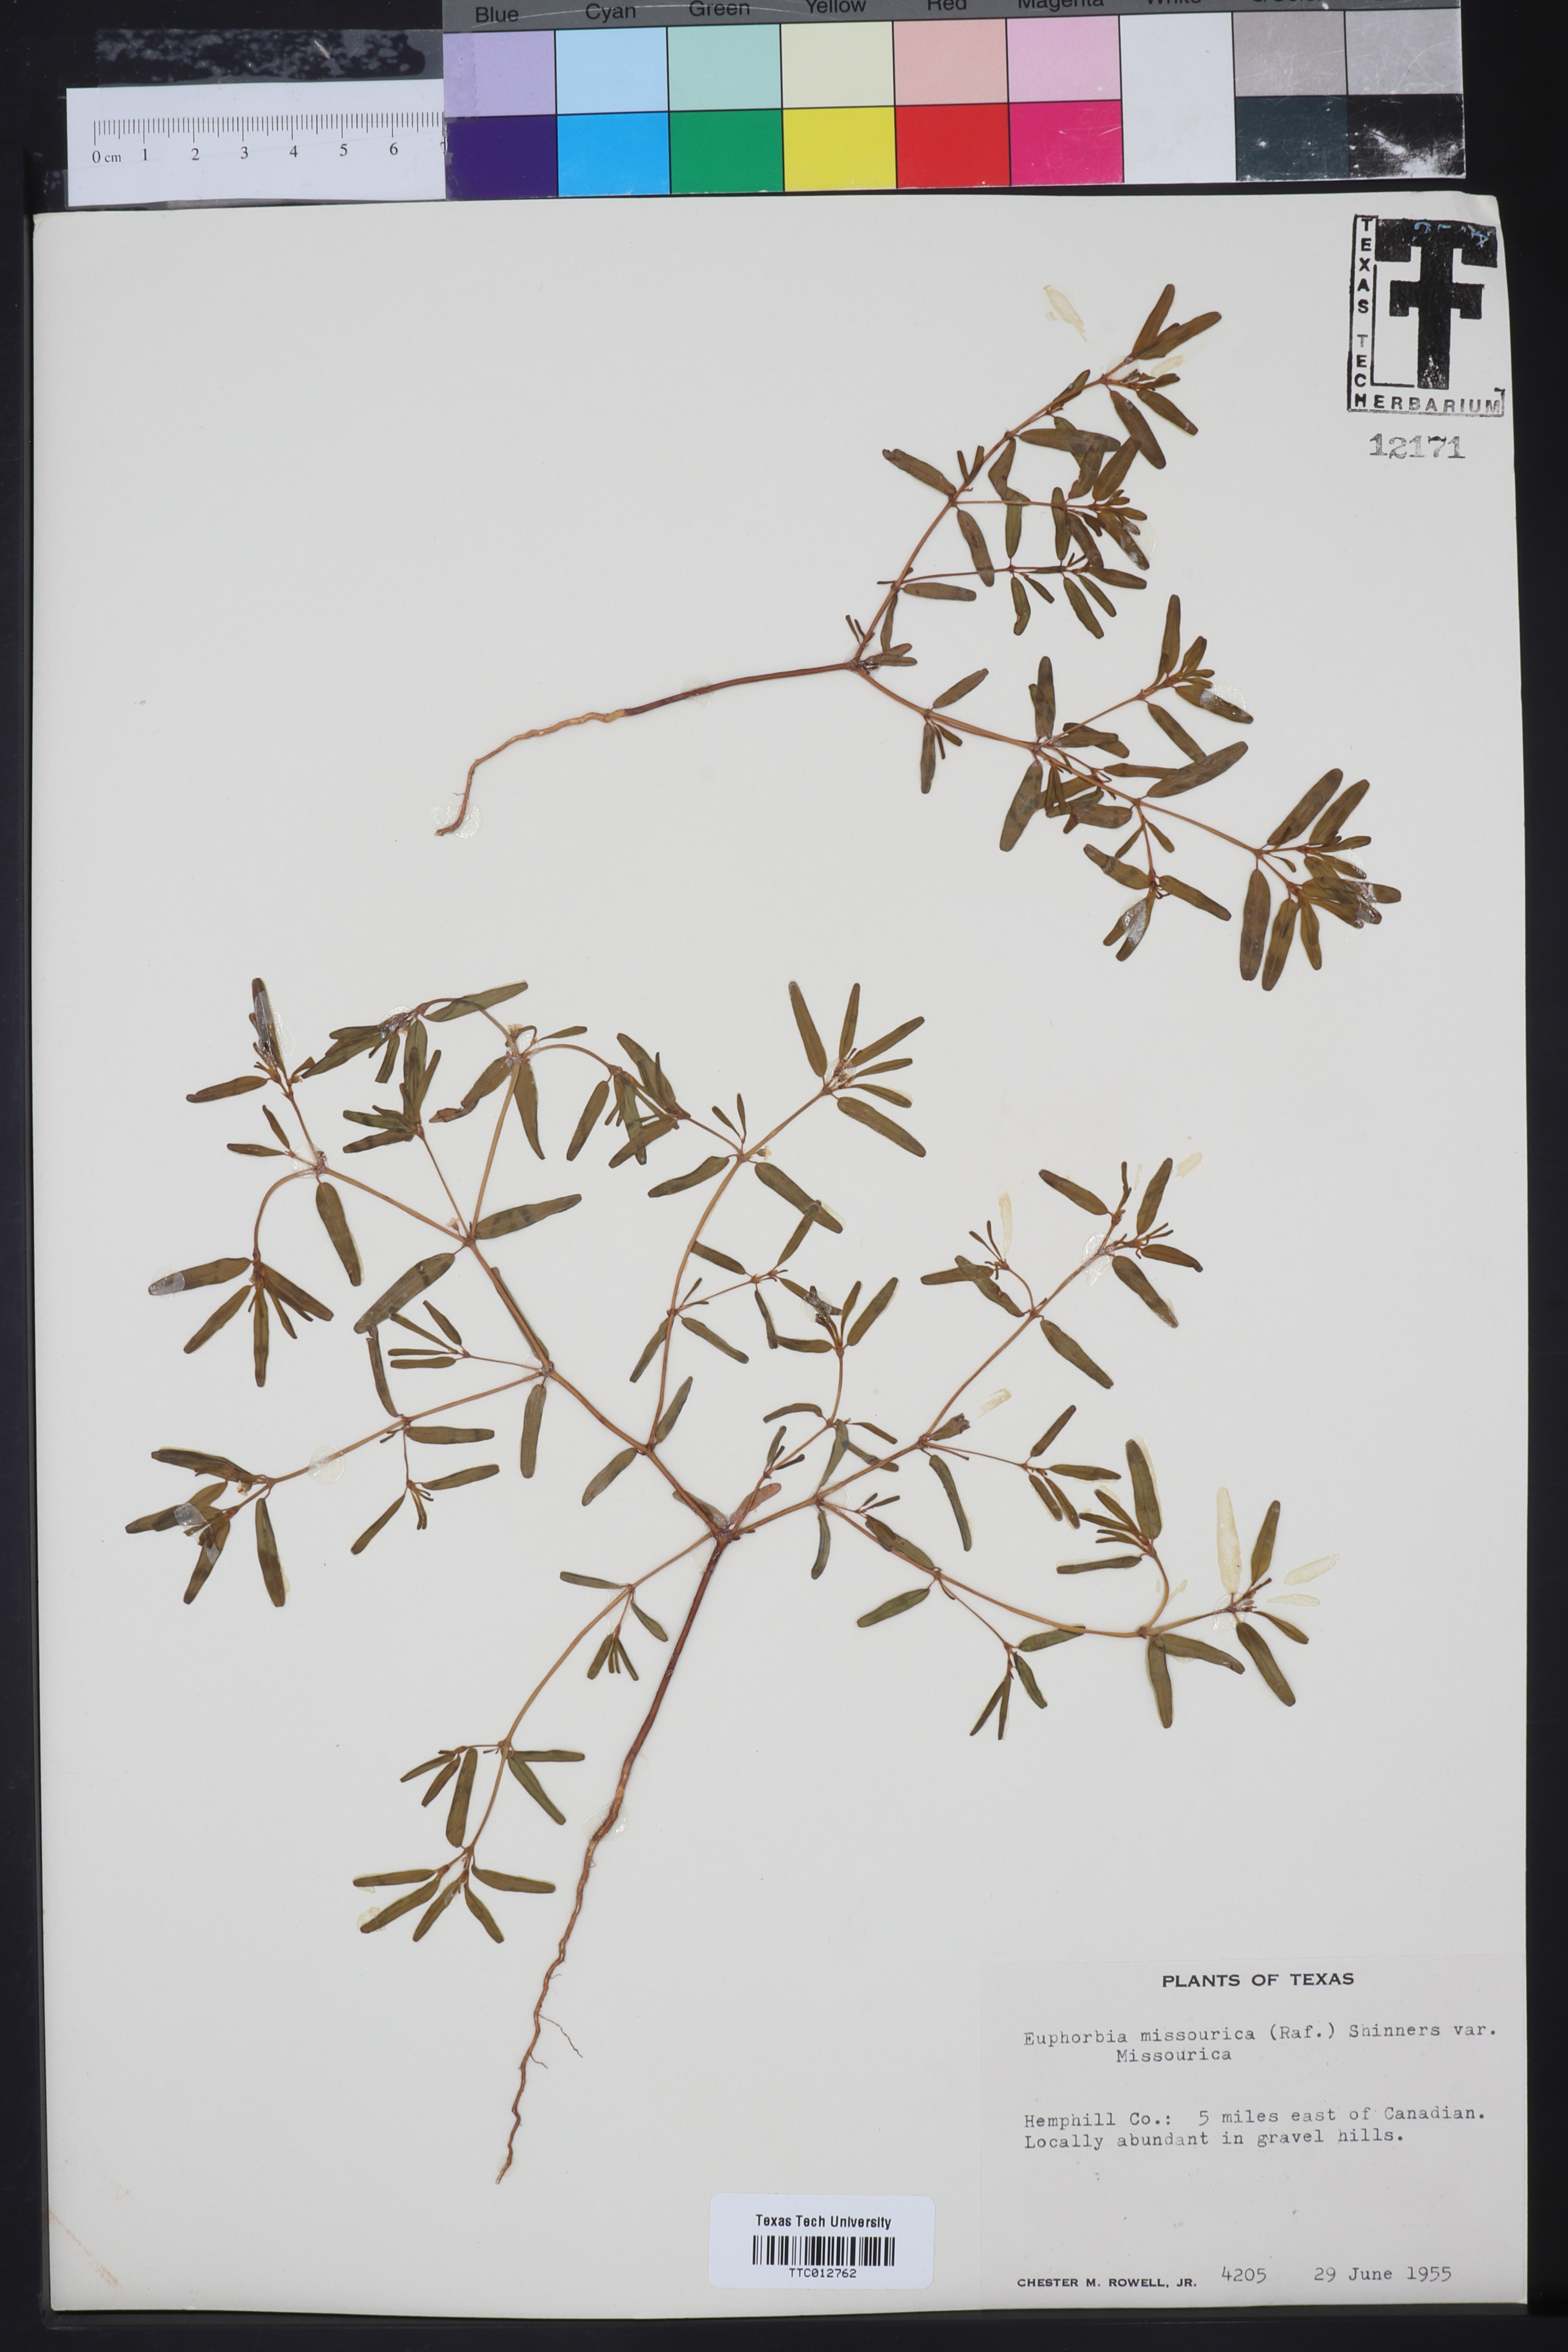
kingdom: Plantae
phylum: Tracheophyta
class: Magnoliopsida
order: Malpighiales
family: Euphorbiaceae
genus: Euphorbia
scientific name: Euphorbia missurica
